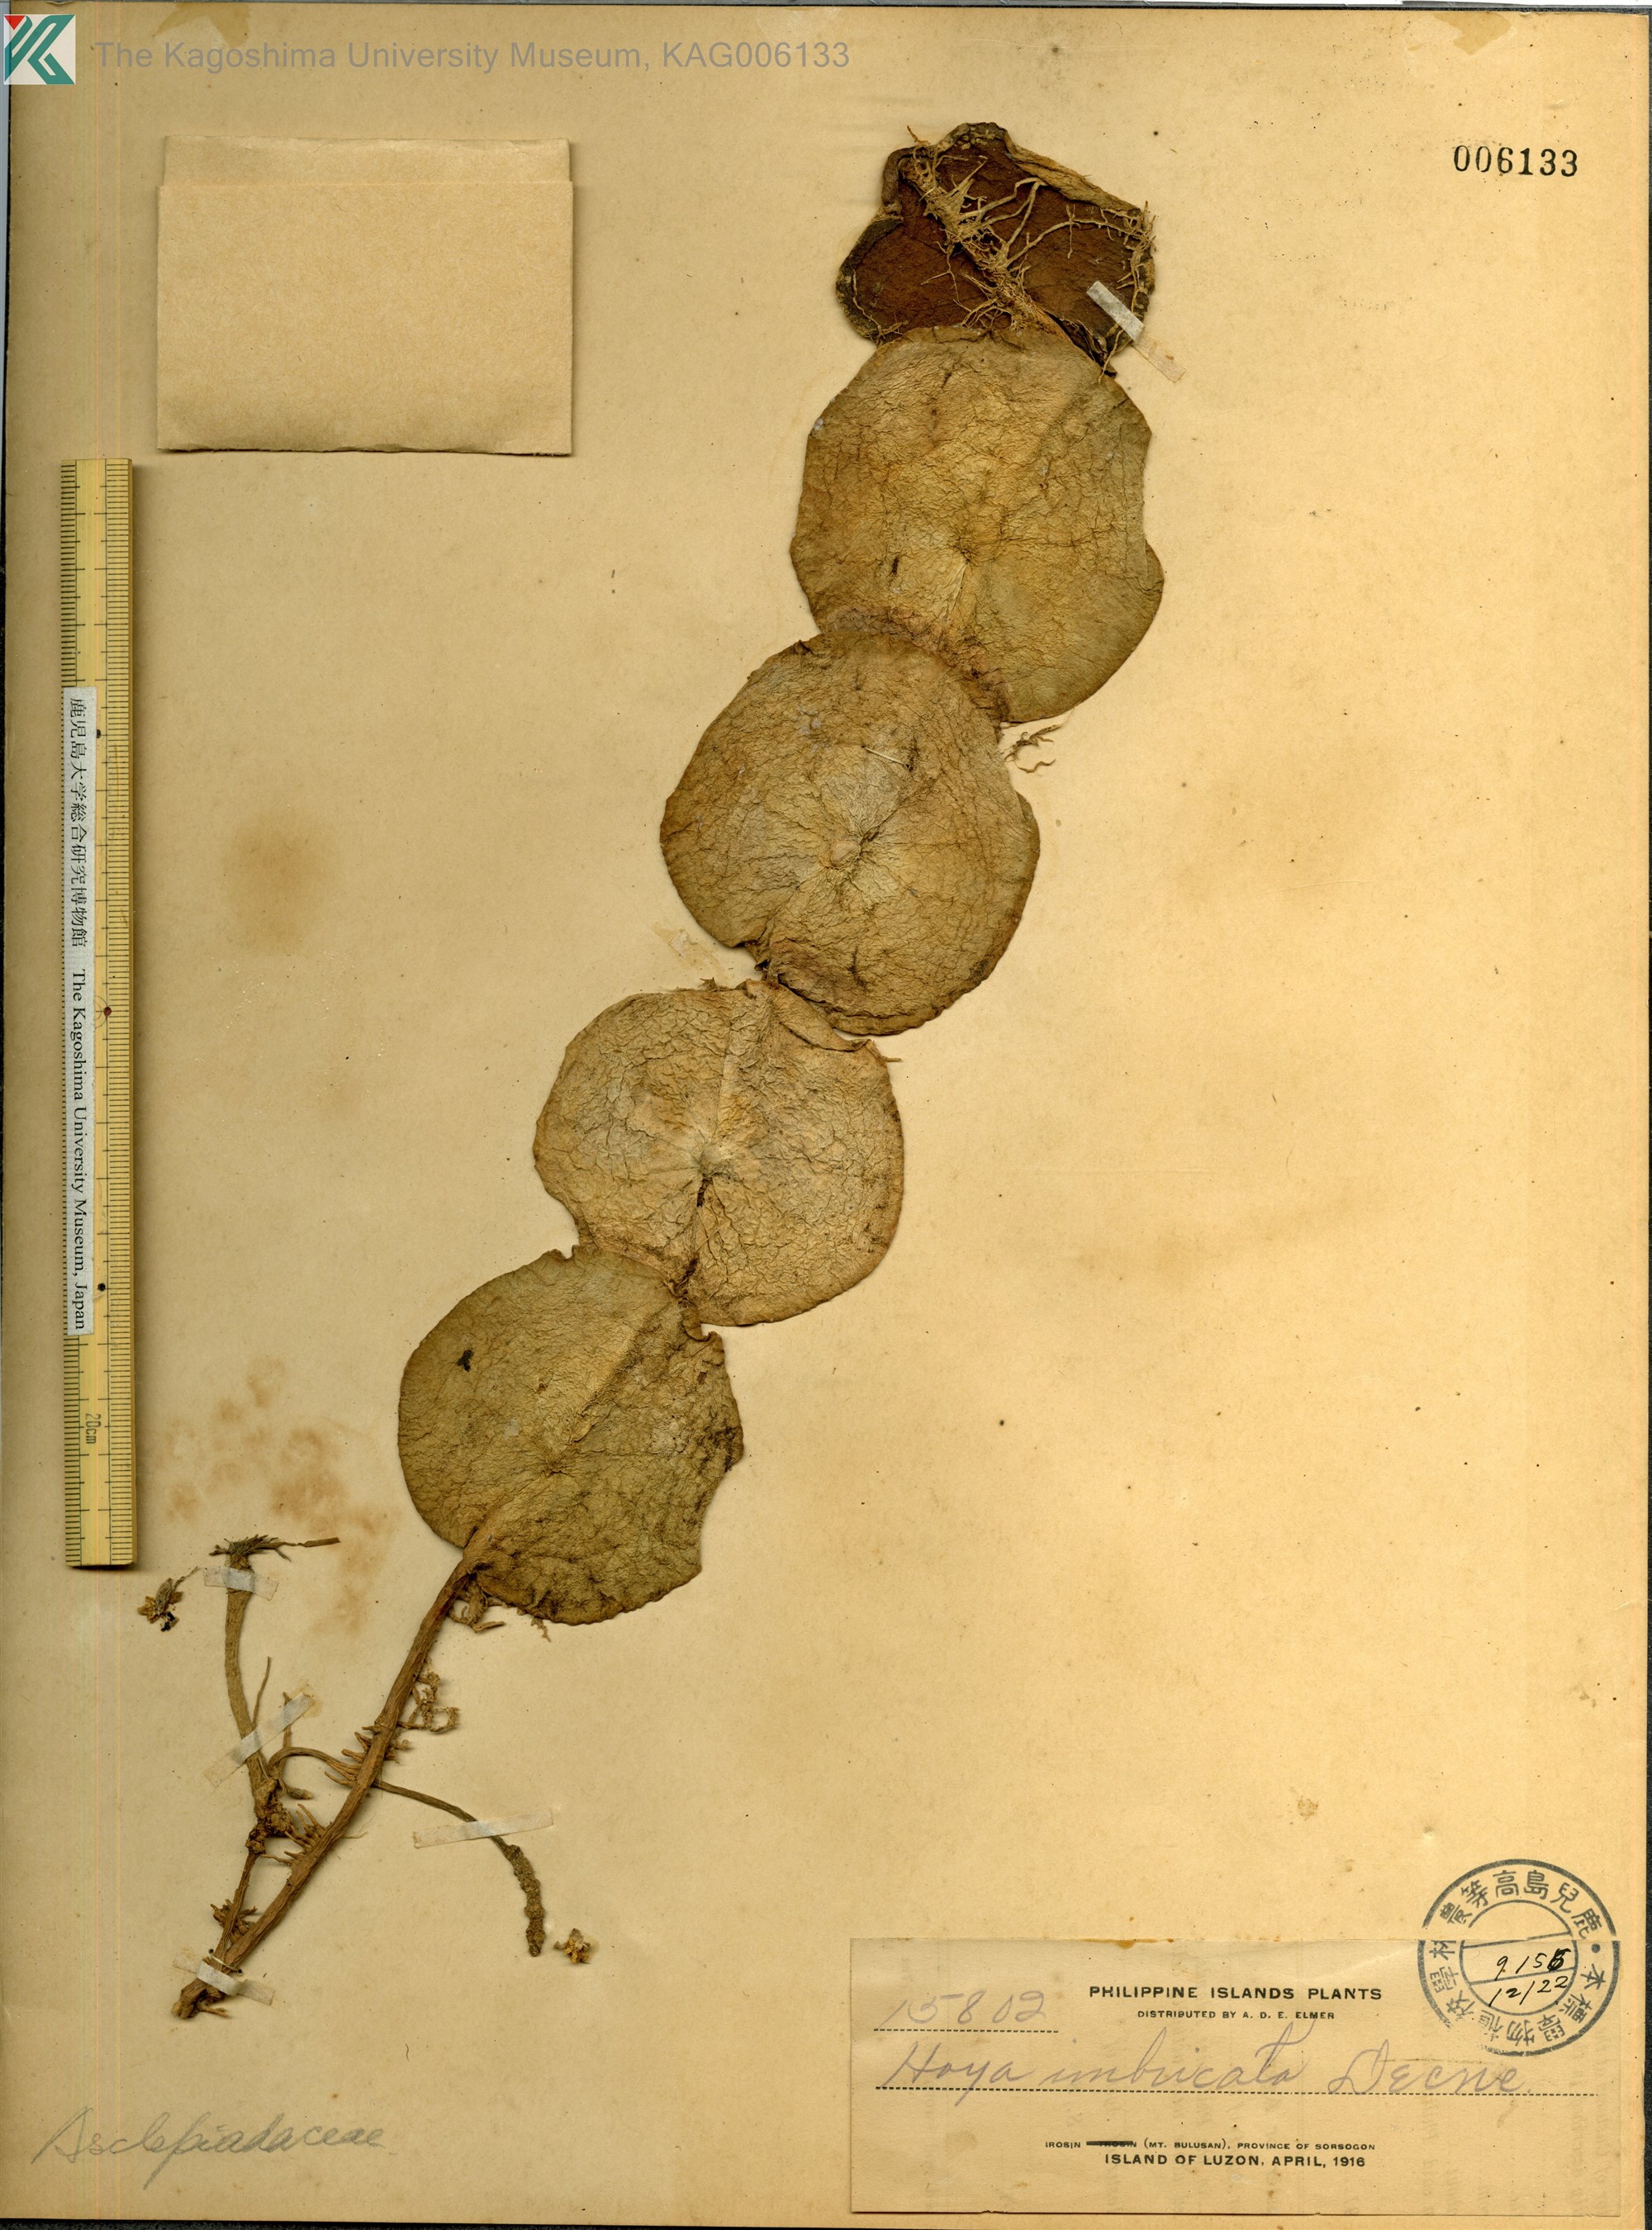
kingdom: Plantae
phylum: Tracheophyta
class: Magnoliopsida
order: Gentianales
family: Apocynaceae
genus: Hoya
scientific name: Hoya imbricata
